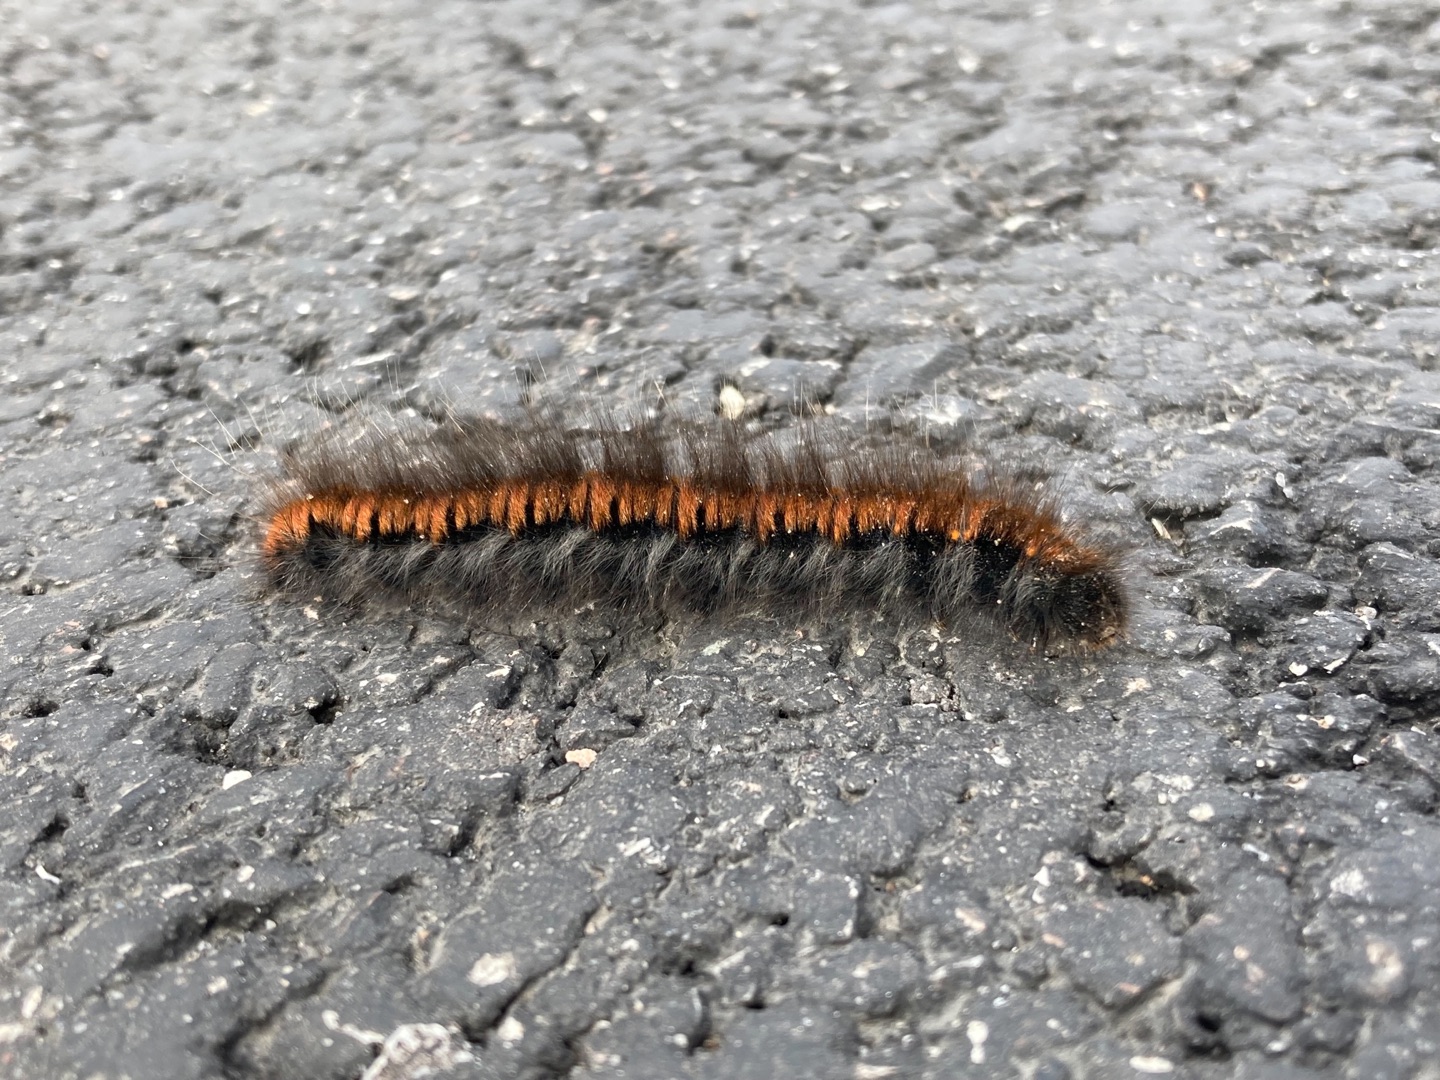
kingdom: Animalia
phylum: Arthropoda
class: Insecta
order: Lepidoptera
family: Lasiocampidae
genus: Macrothylacia
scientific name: Macrothylacia rubi
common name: Brombærspinder
